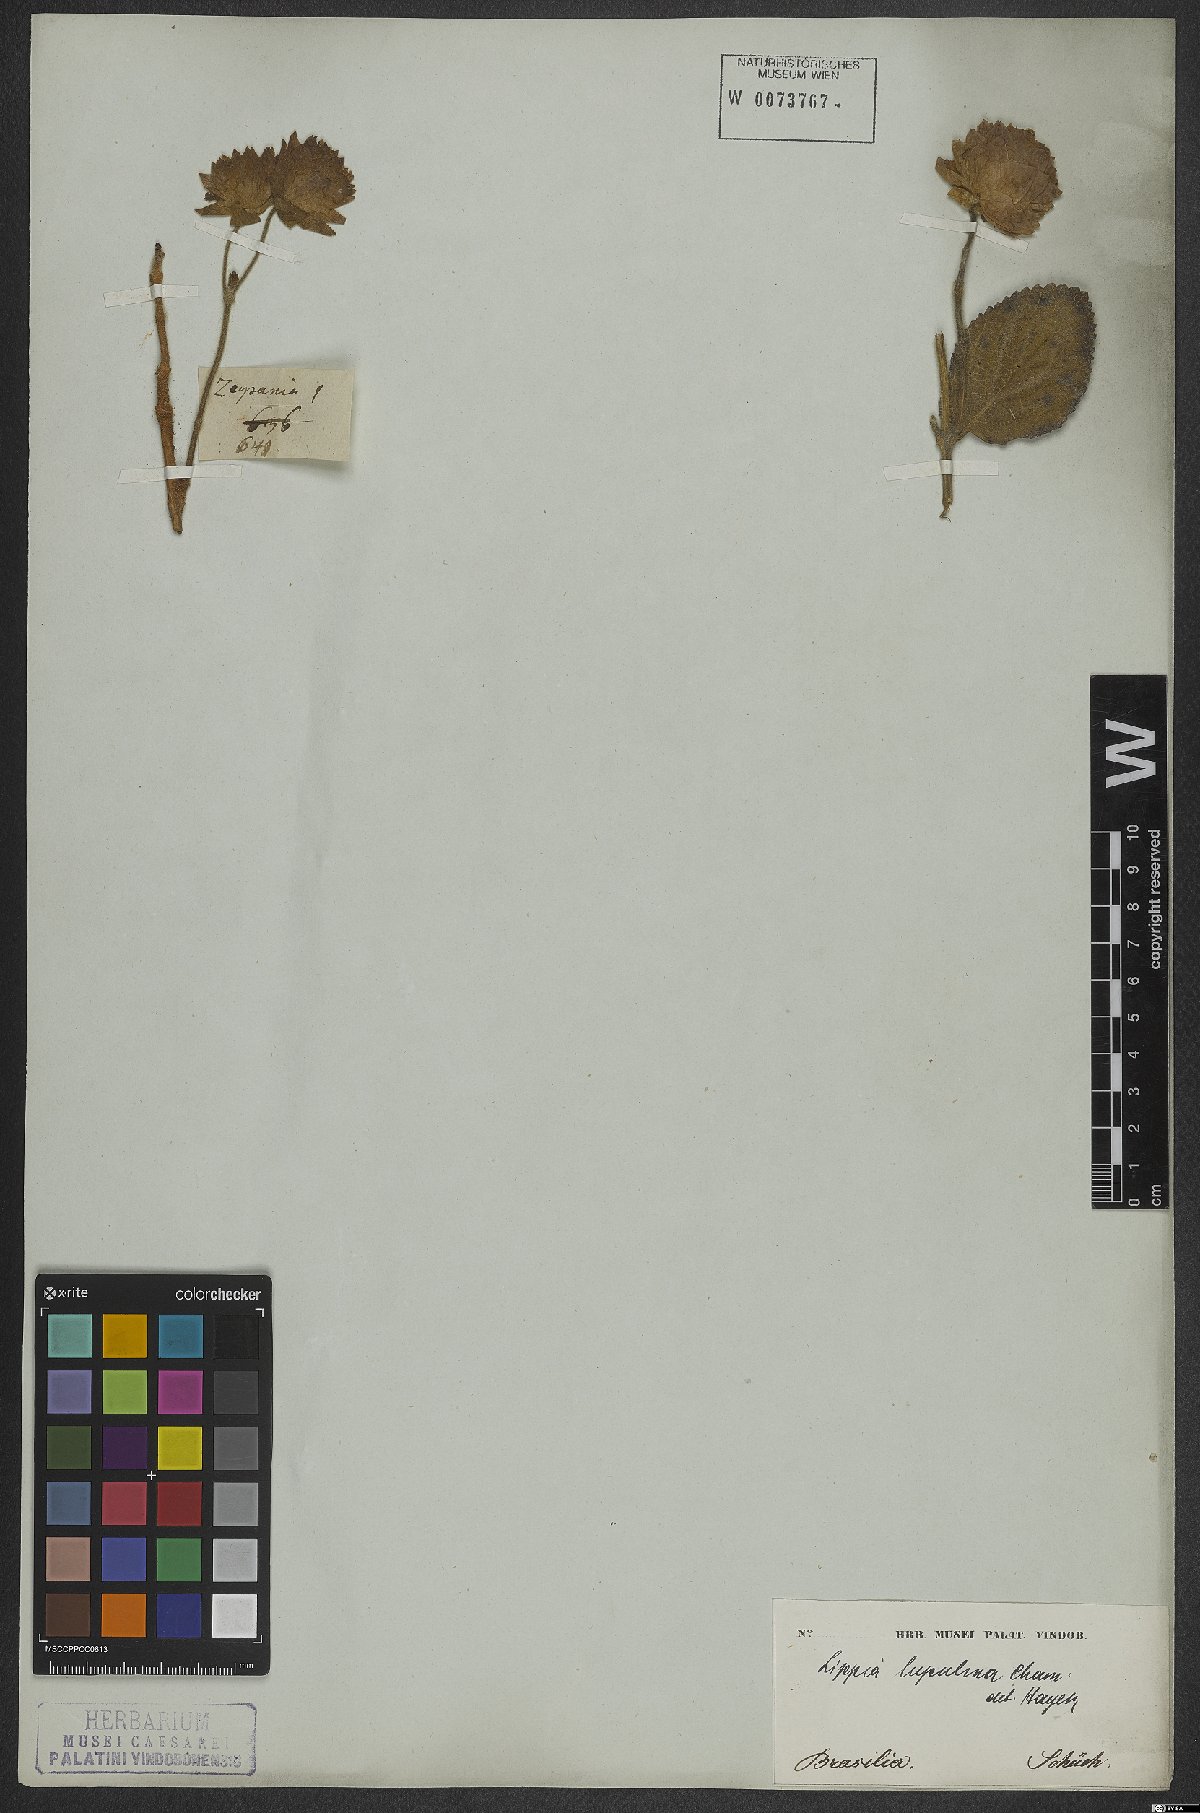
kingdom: Plantae
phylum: Tracheophyta
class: Magnoliopsida
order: Lamiales
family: Verbenaceae
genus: Lippia
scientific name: Lippia lupulina
